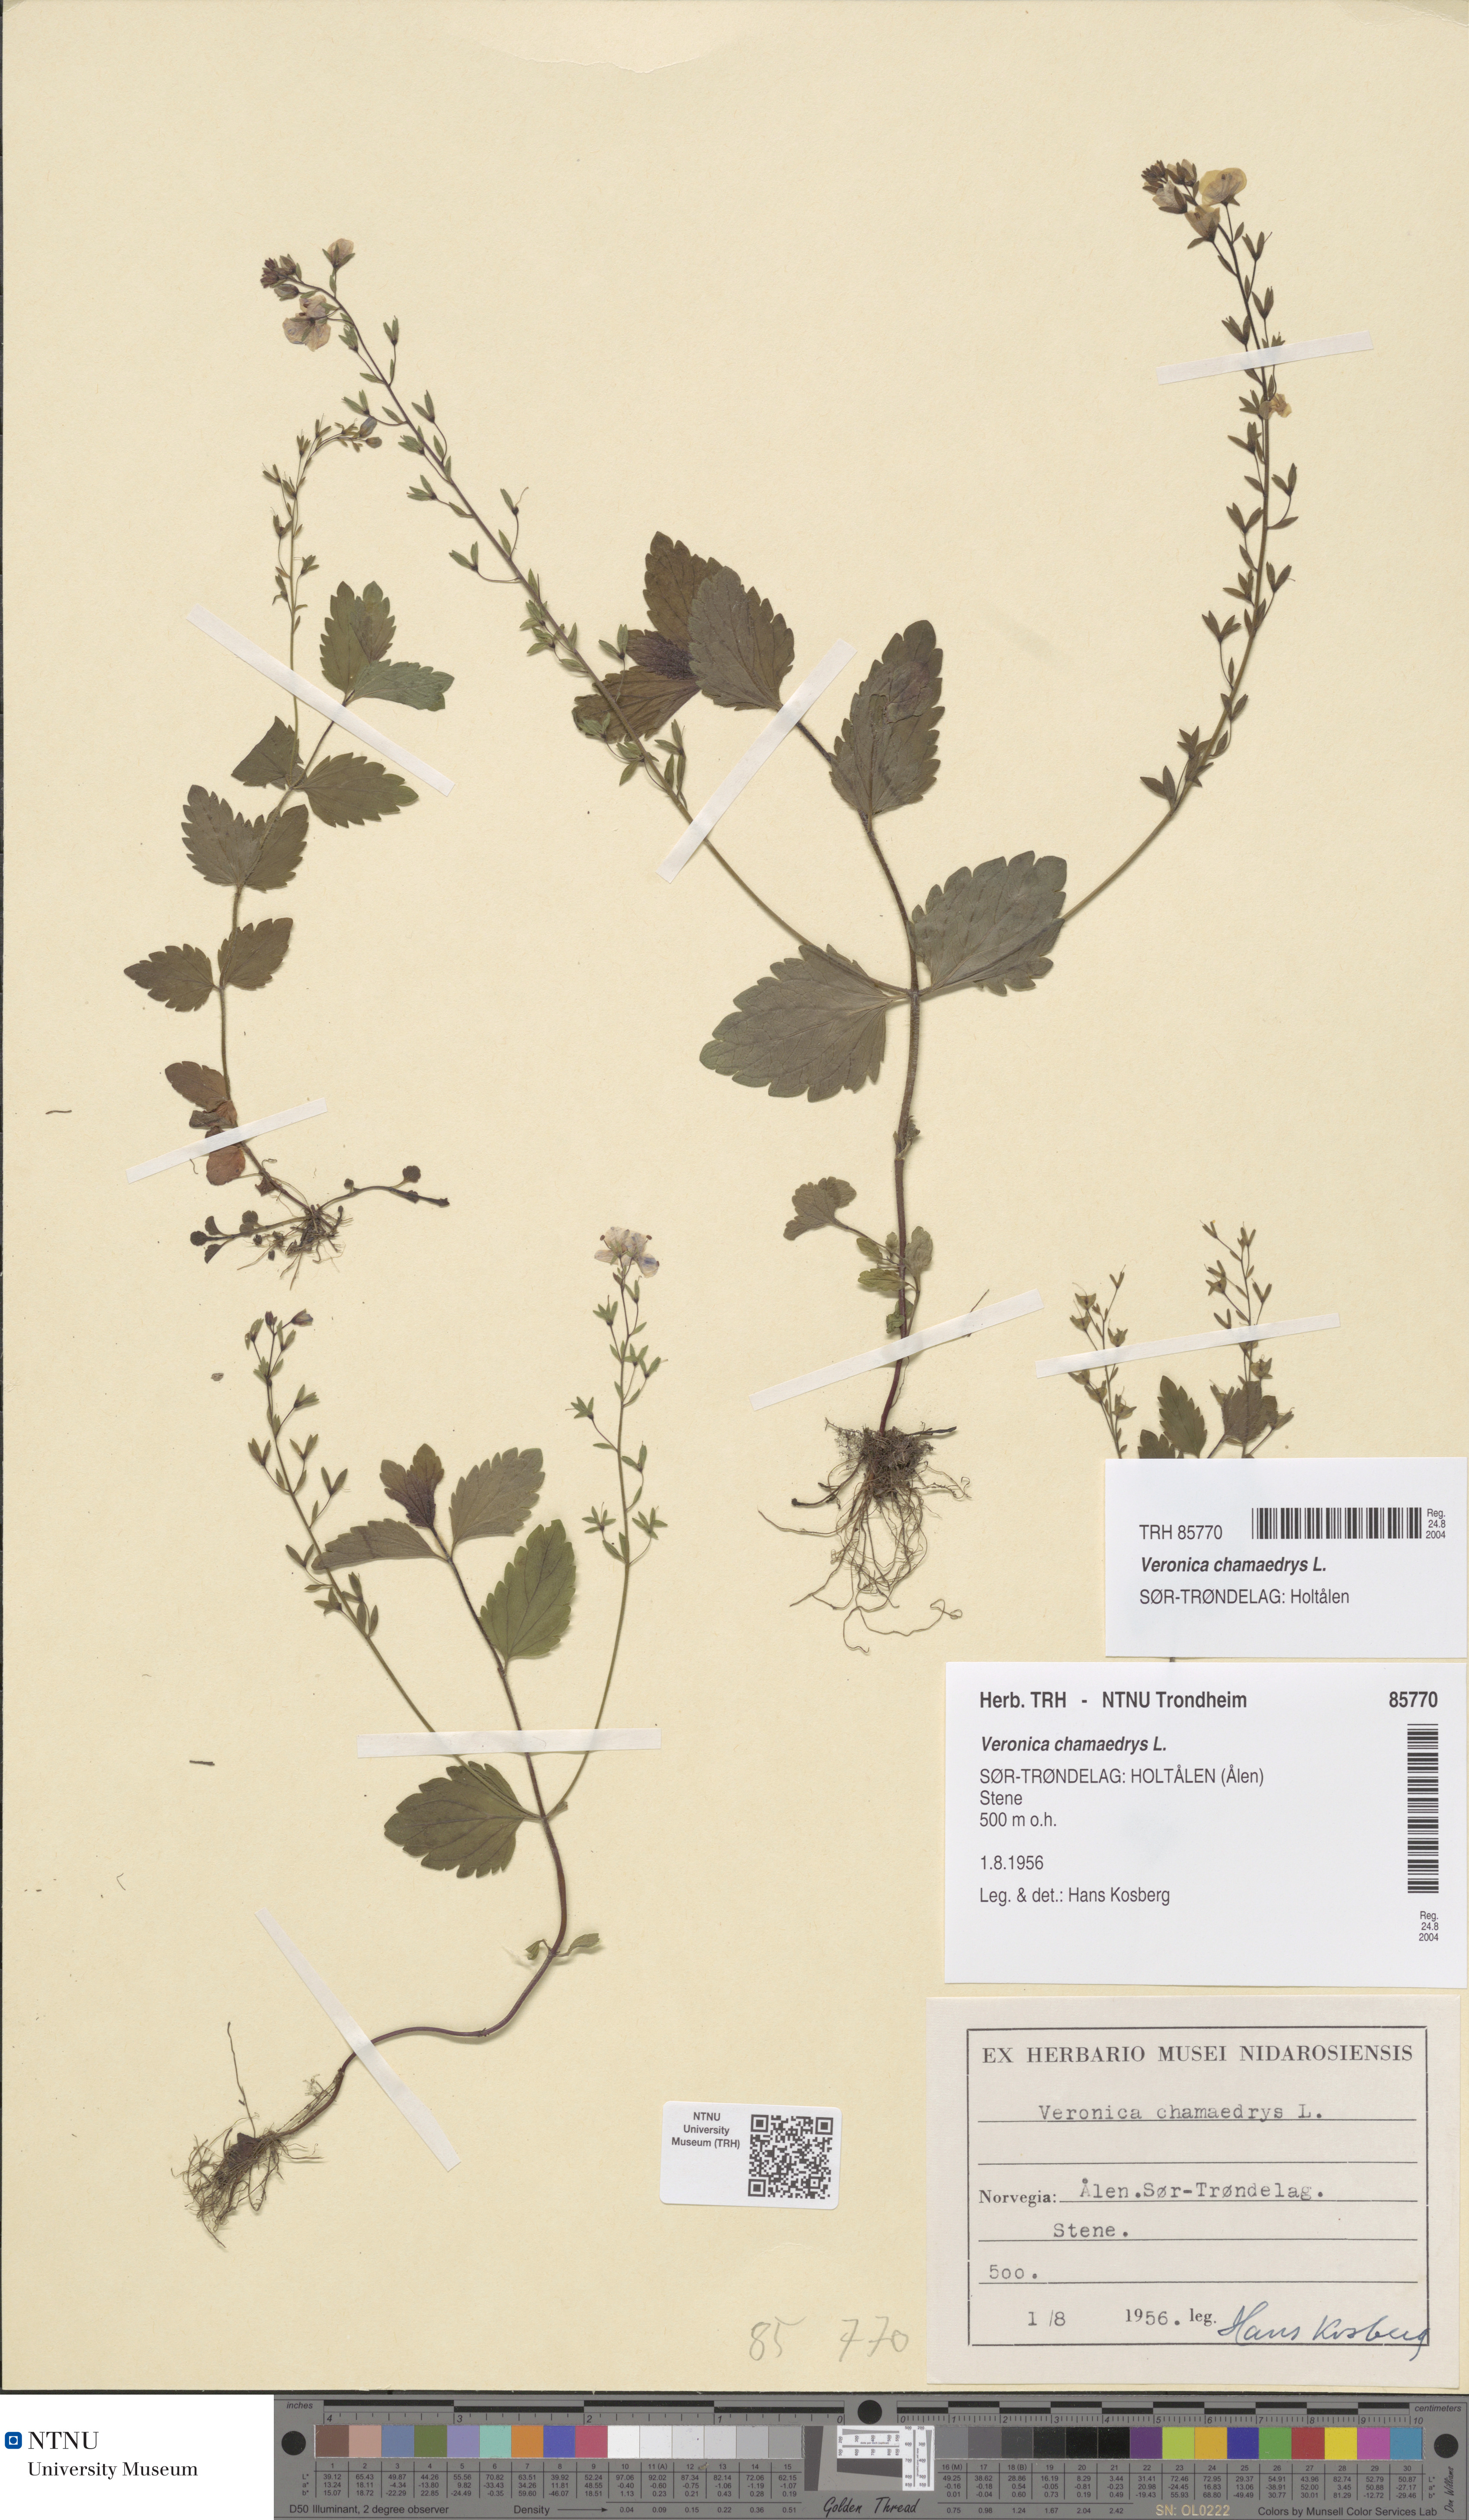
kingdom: Plantae
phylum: Tracheophyta
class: Magnoliopsida
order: Lamiales
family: Plantaginaceae
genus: Veronica
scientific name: Veronica chamaedrys
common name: Germander speedwell
